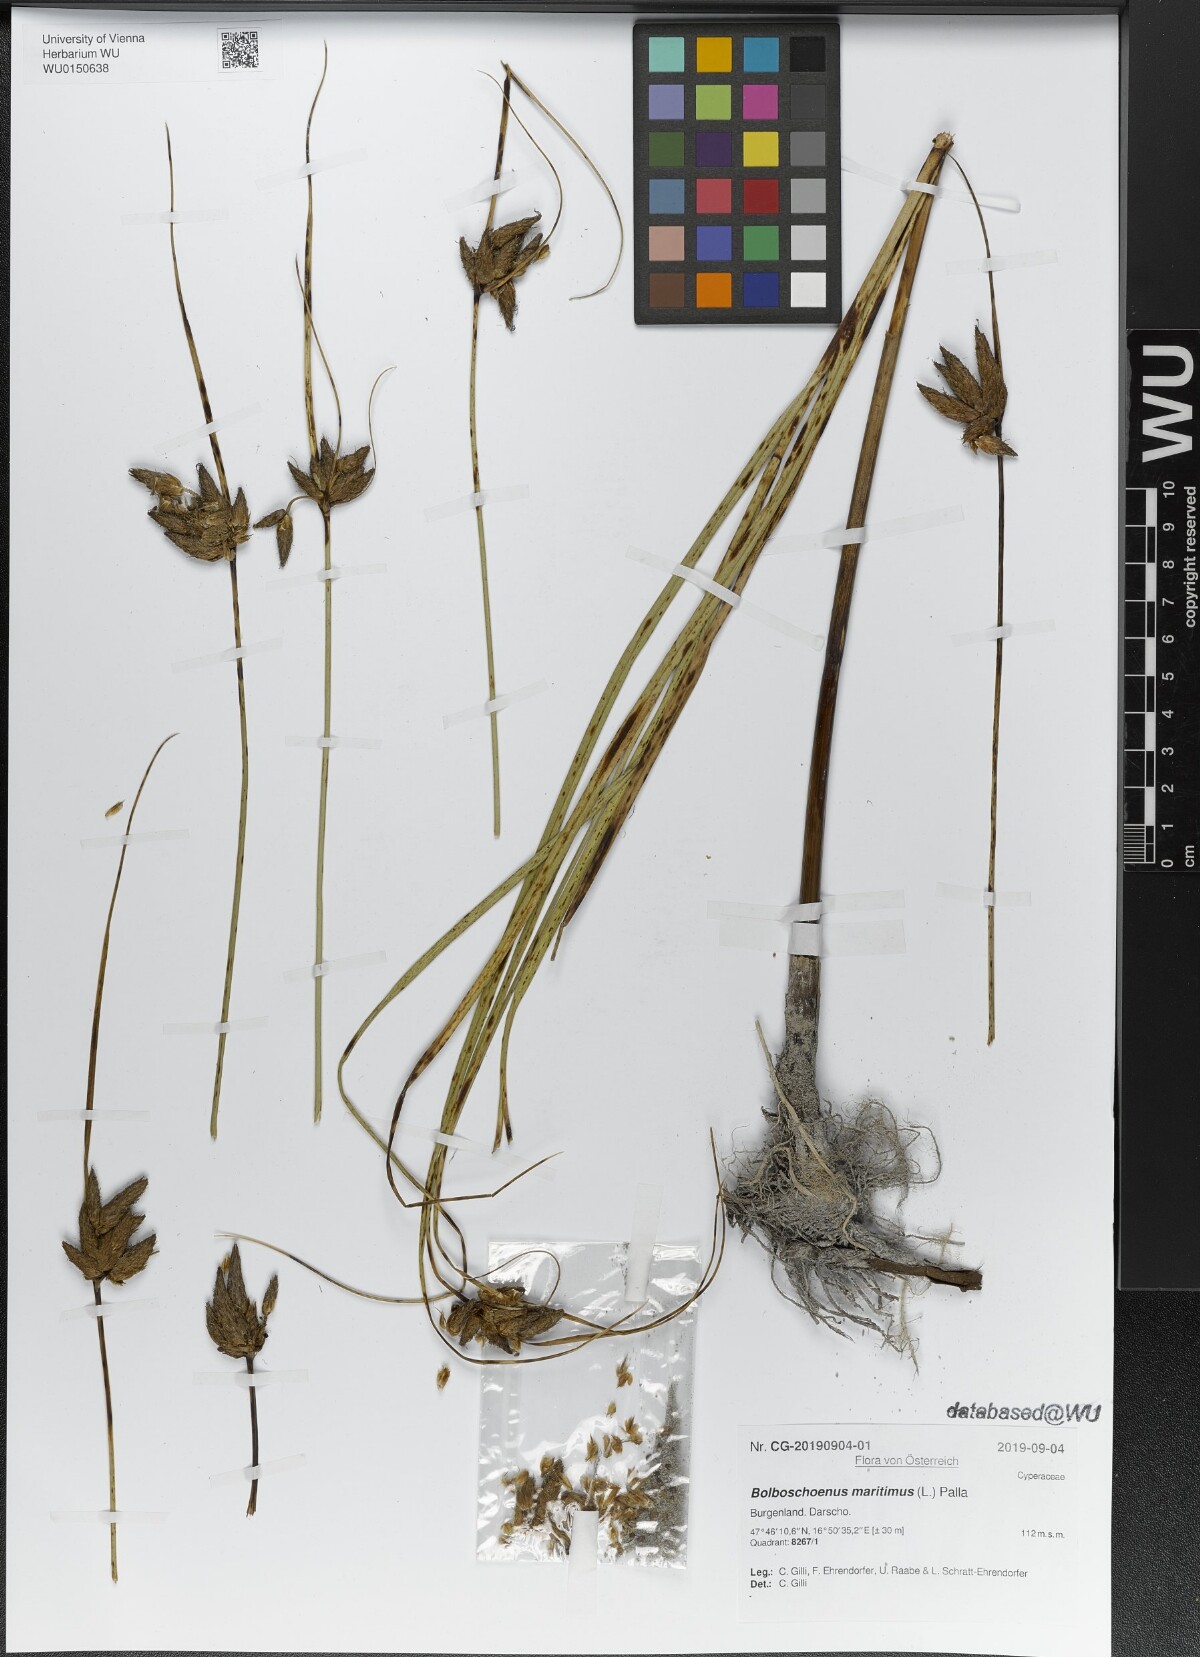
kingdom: Plantae
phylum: Tracheophyta
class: Liliopsida
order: Poales
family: Cyperaceae
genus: Bolboschoenus
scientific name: Bolboschoenus maritimus
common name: Sea club-rush
